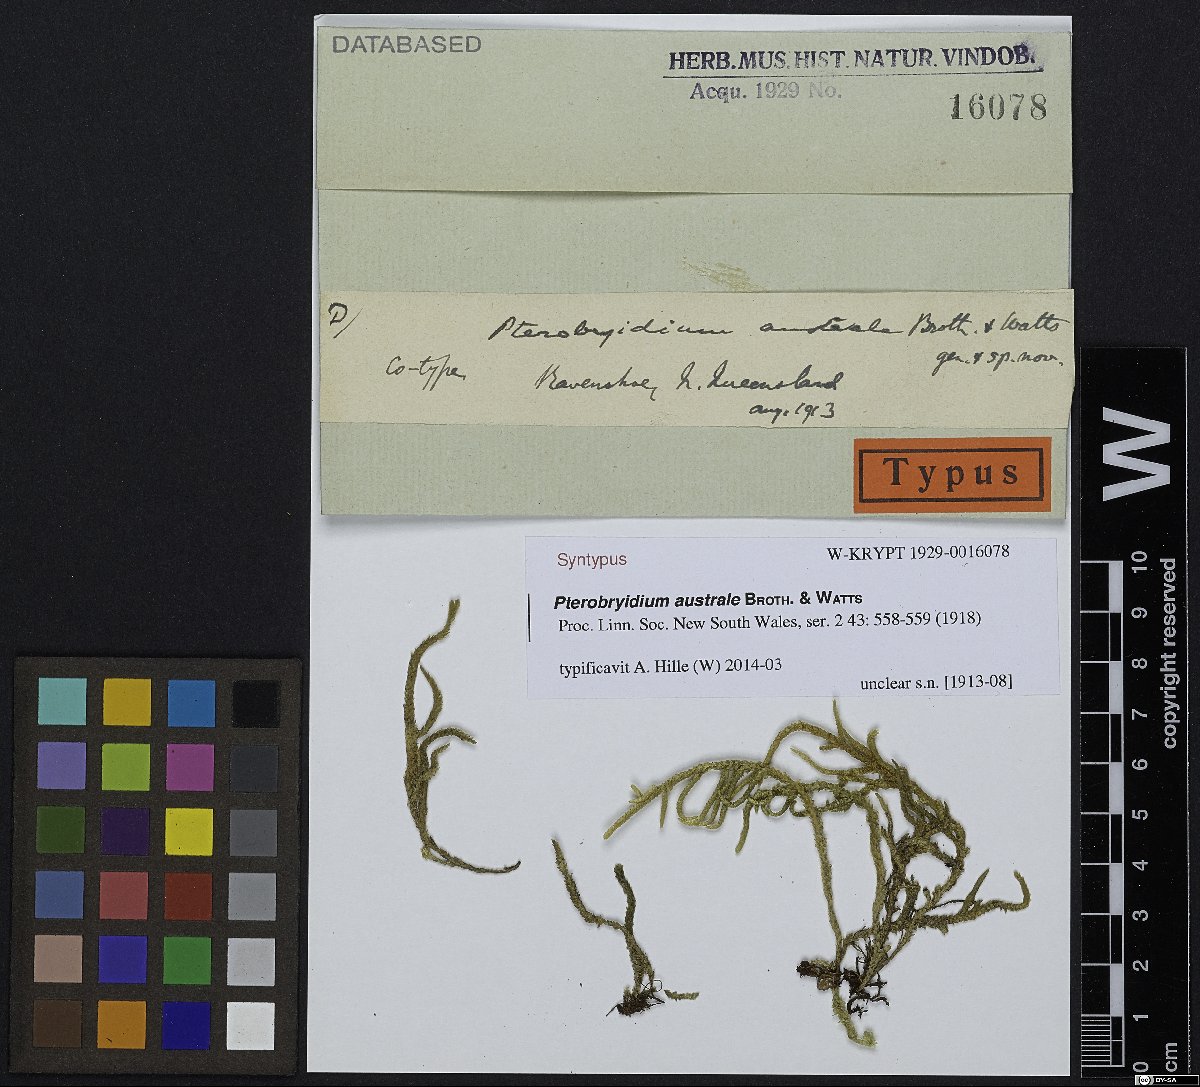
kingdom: Plantae
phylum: Bryophyta
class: Bryopsida
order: Hypnales
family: Pterobryaceae
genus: Pterobryidium
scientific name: Pterobryidium australe
